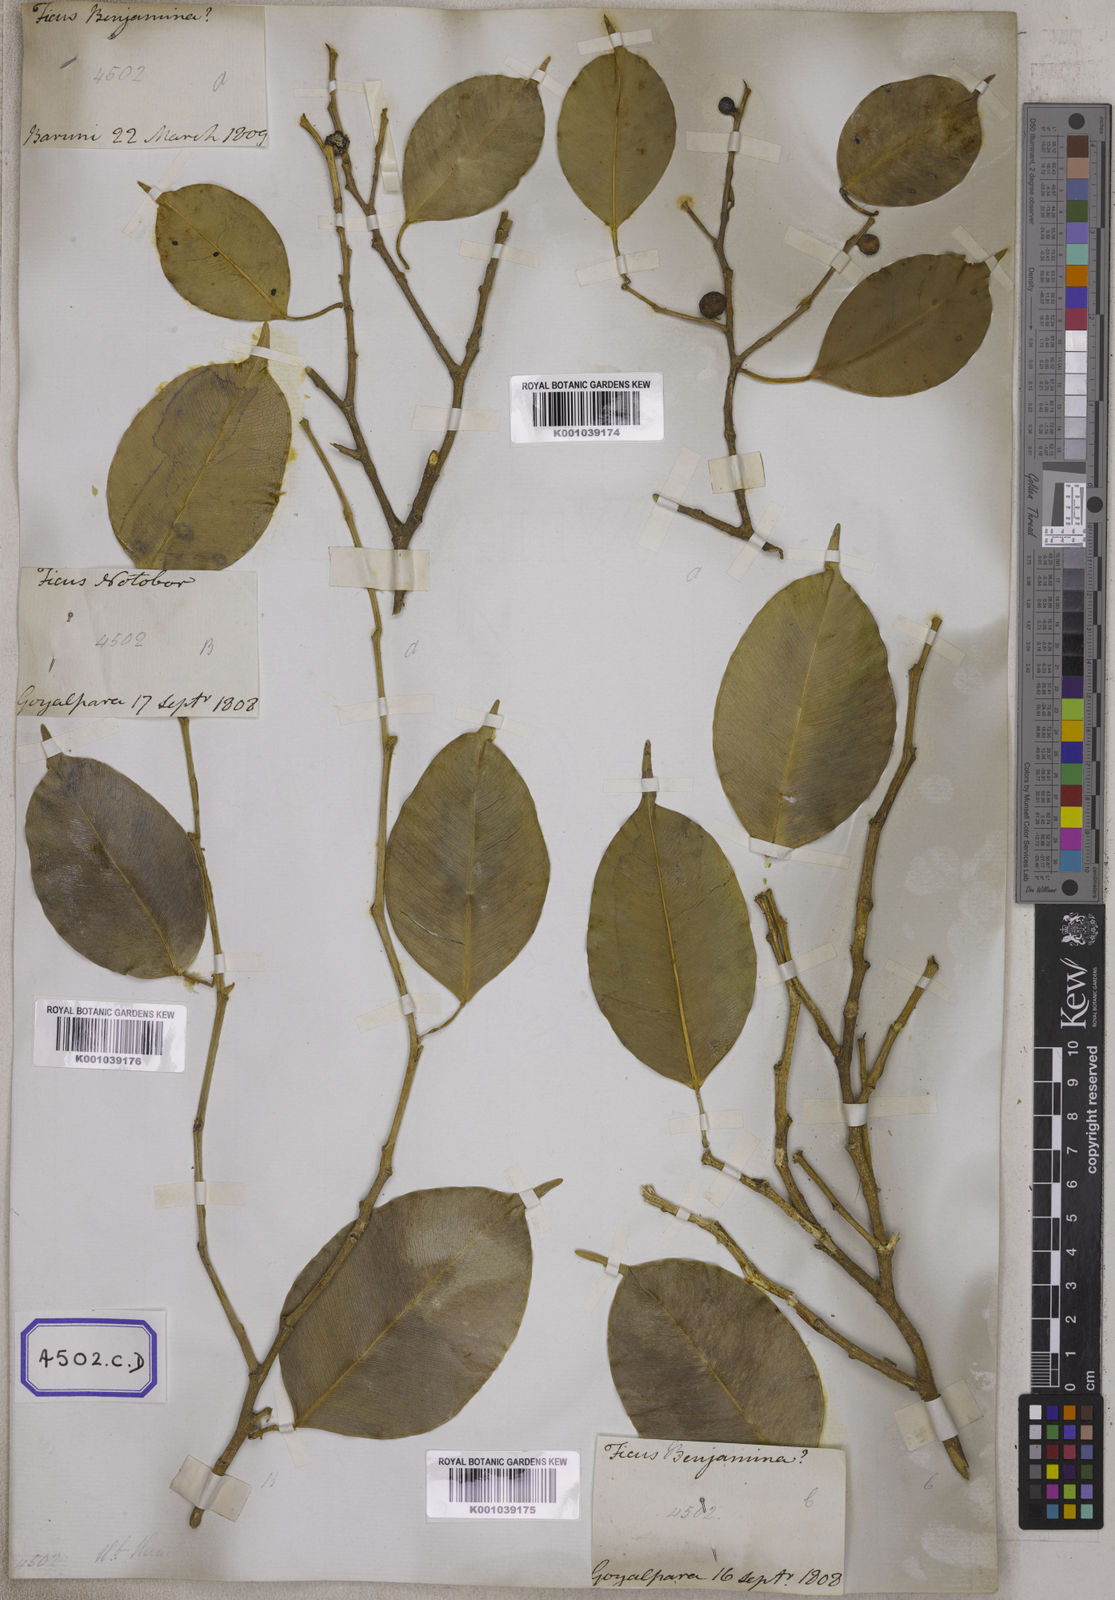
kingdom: Plantae
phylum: Tracheophyta
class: Magnoliopsida
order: Rosales
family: Moraceae
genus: Ficus
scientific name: Ficus benjamina
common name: Weeping fig
